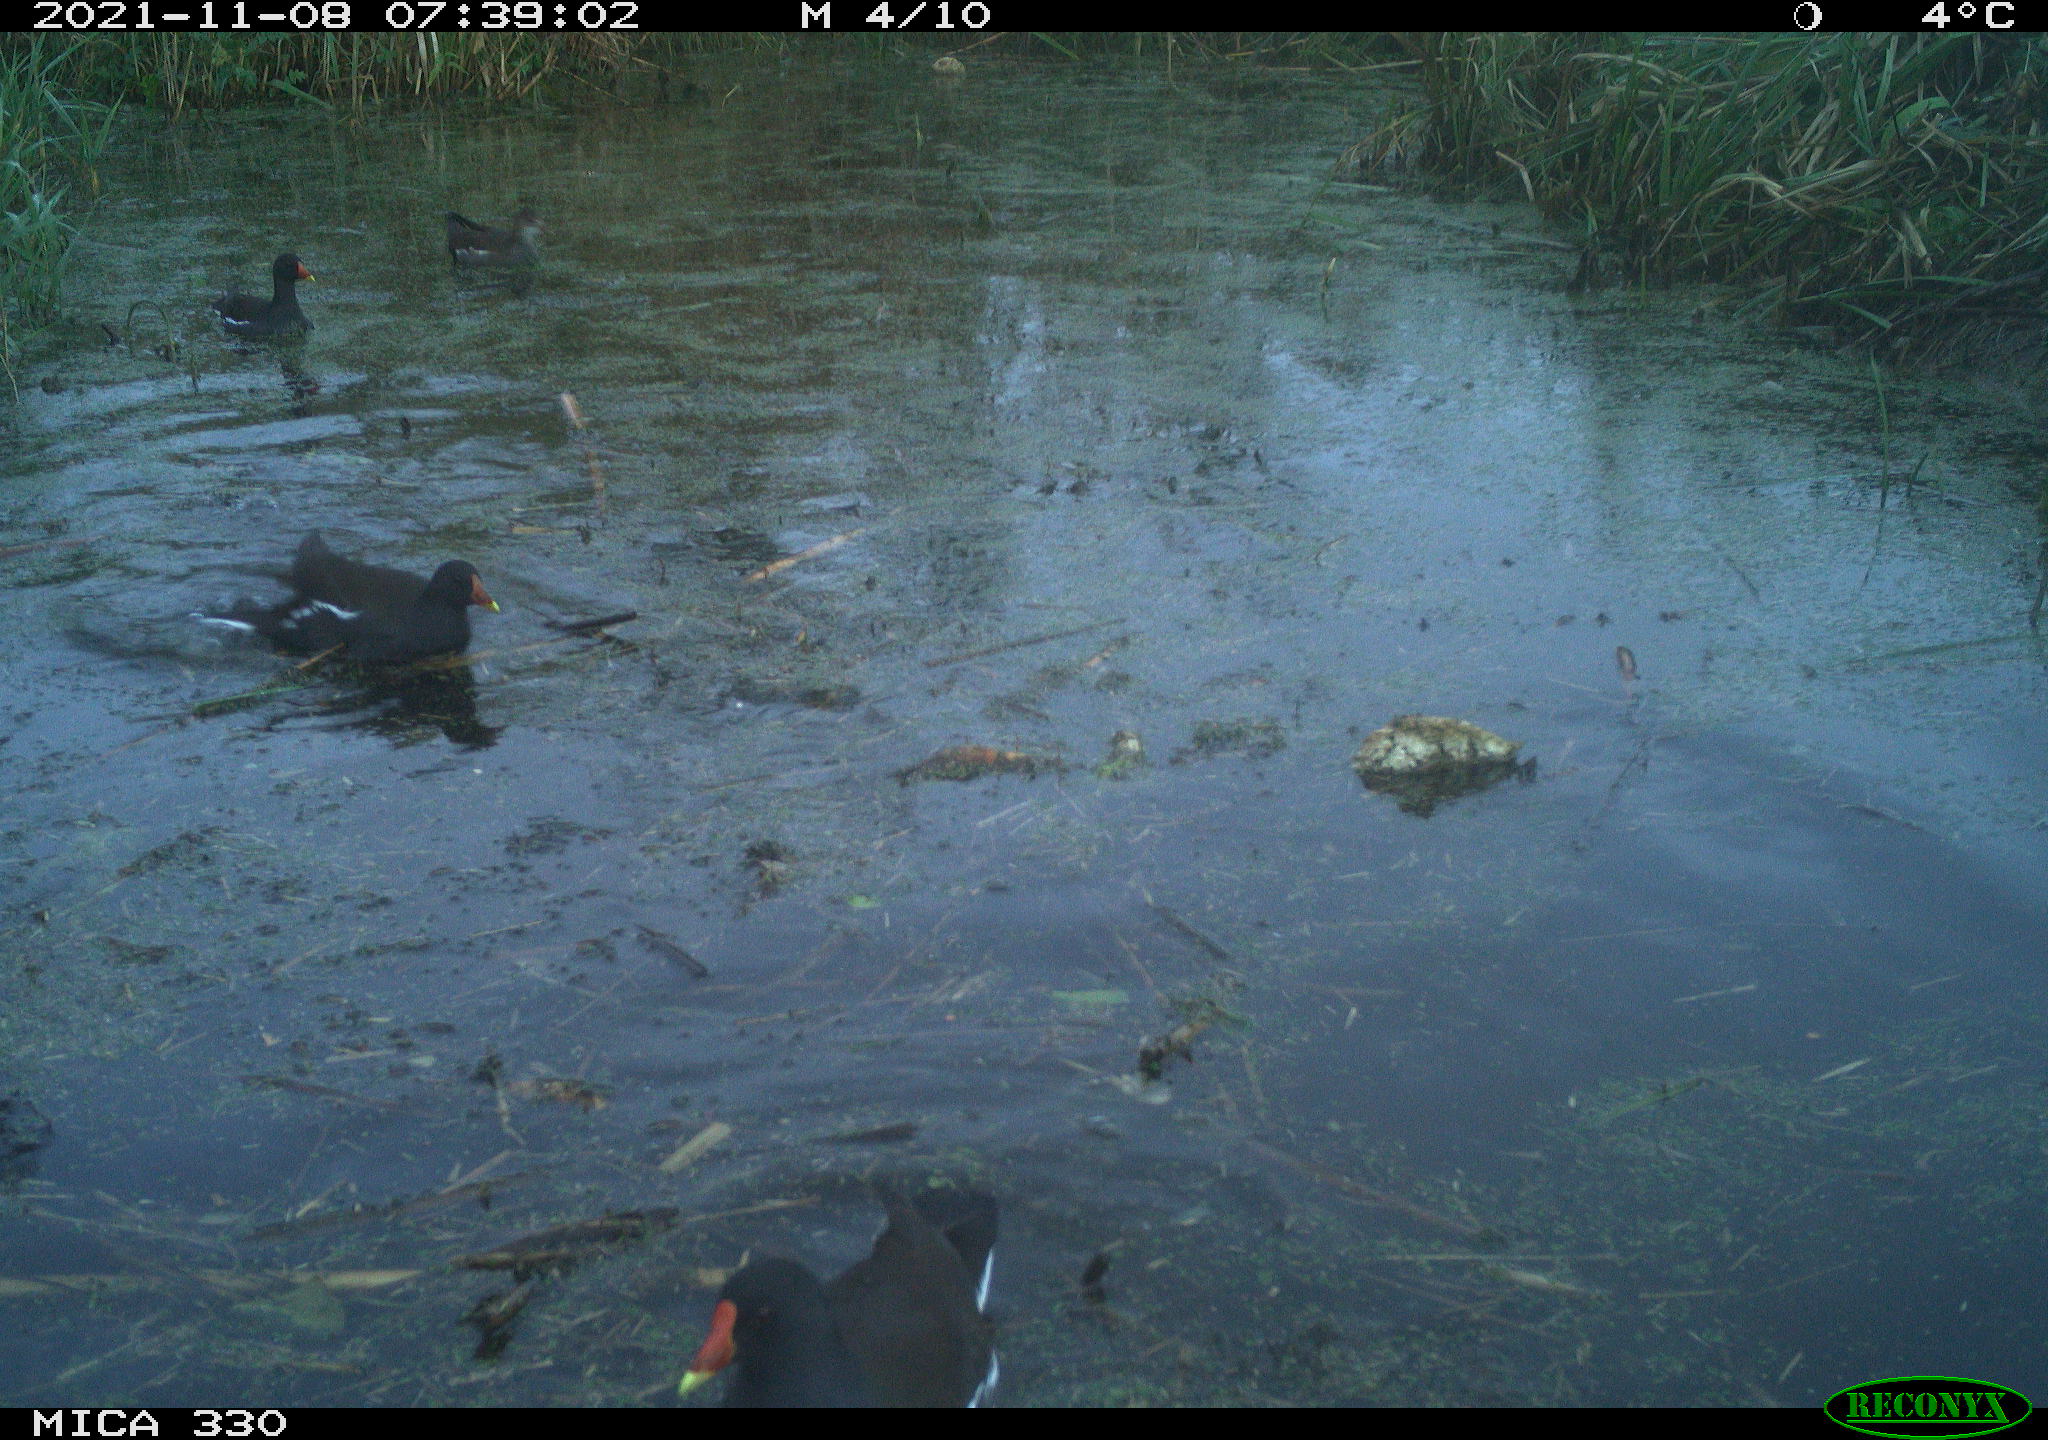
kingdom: Animalia
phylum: Chordata
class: Aves
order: Gruiformes
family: Rallidae
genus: Gallinula
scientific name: Gallinula chloropus
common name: Common moorhen
